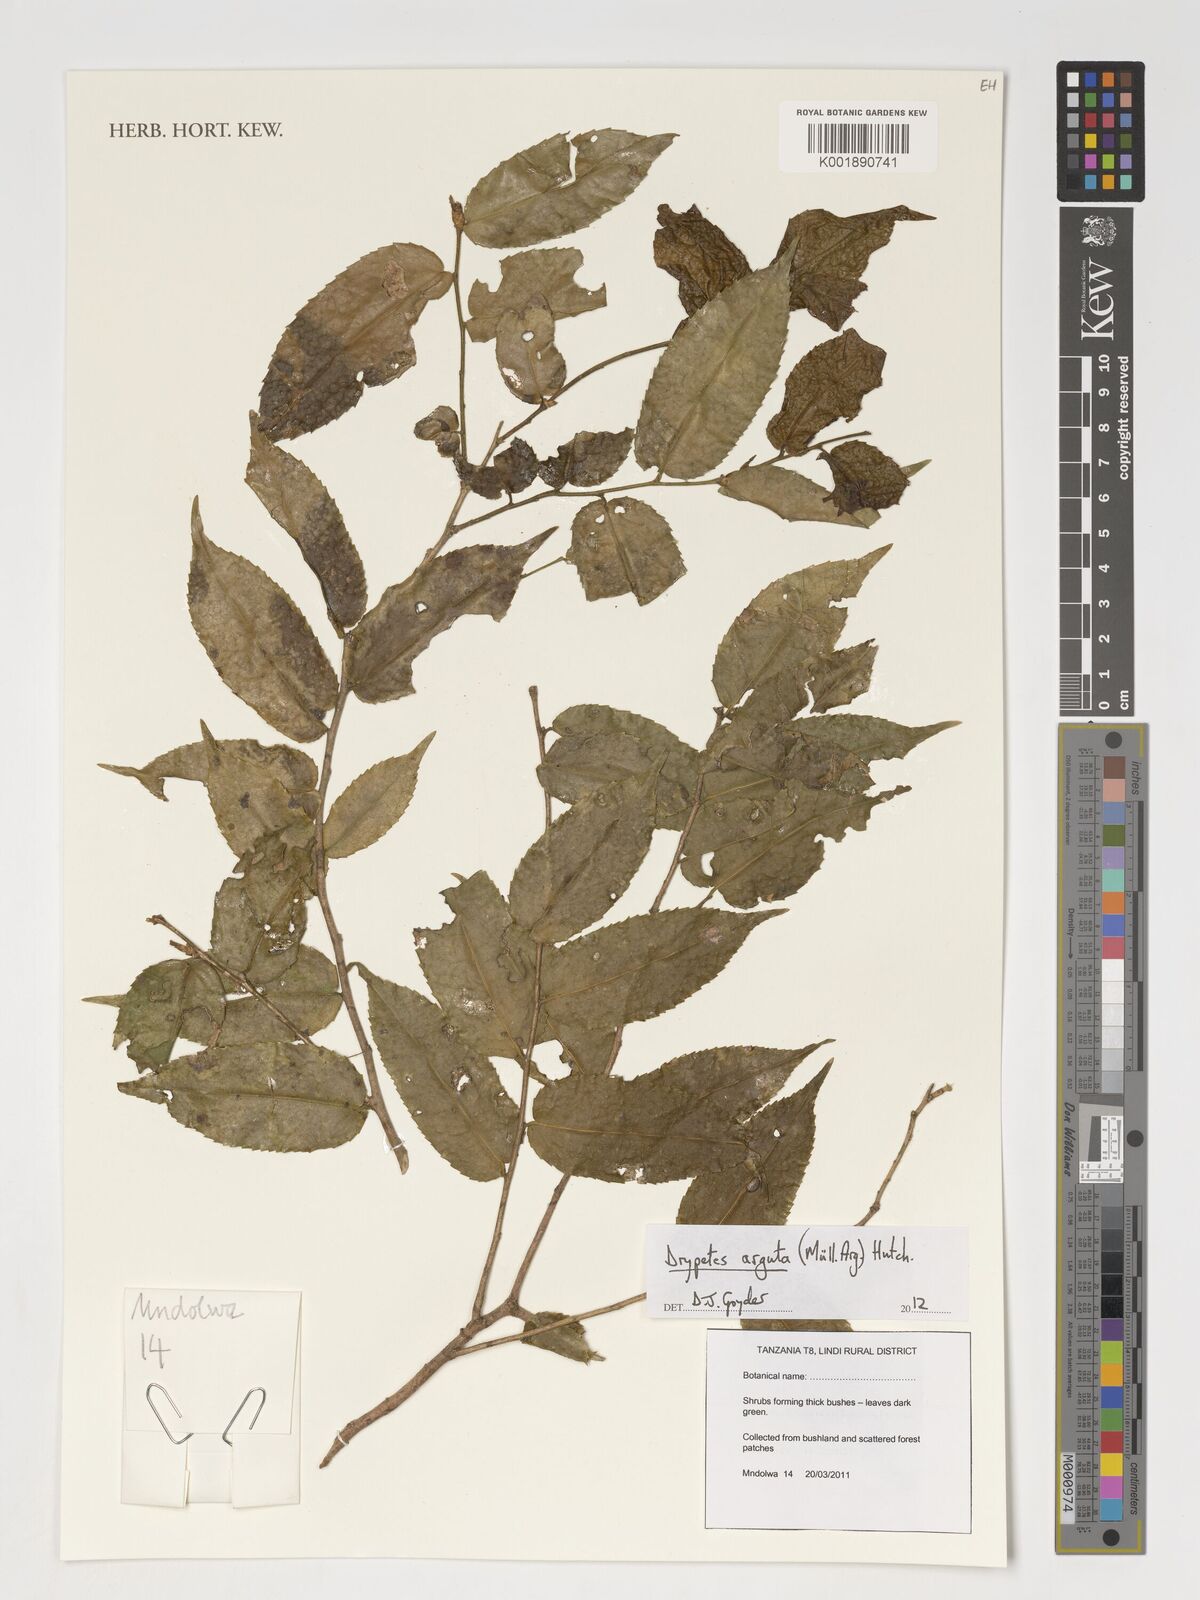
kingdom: Plantae
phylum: Tracheophyta
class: Magnoliopsida
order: Malpighiales
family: Putranjivaceae
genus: Drypetes
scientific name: Drypetes arguta
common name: Water ironplum
